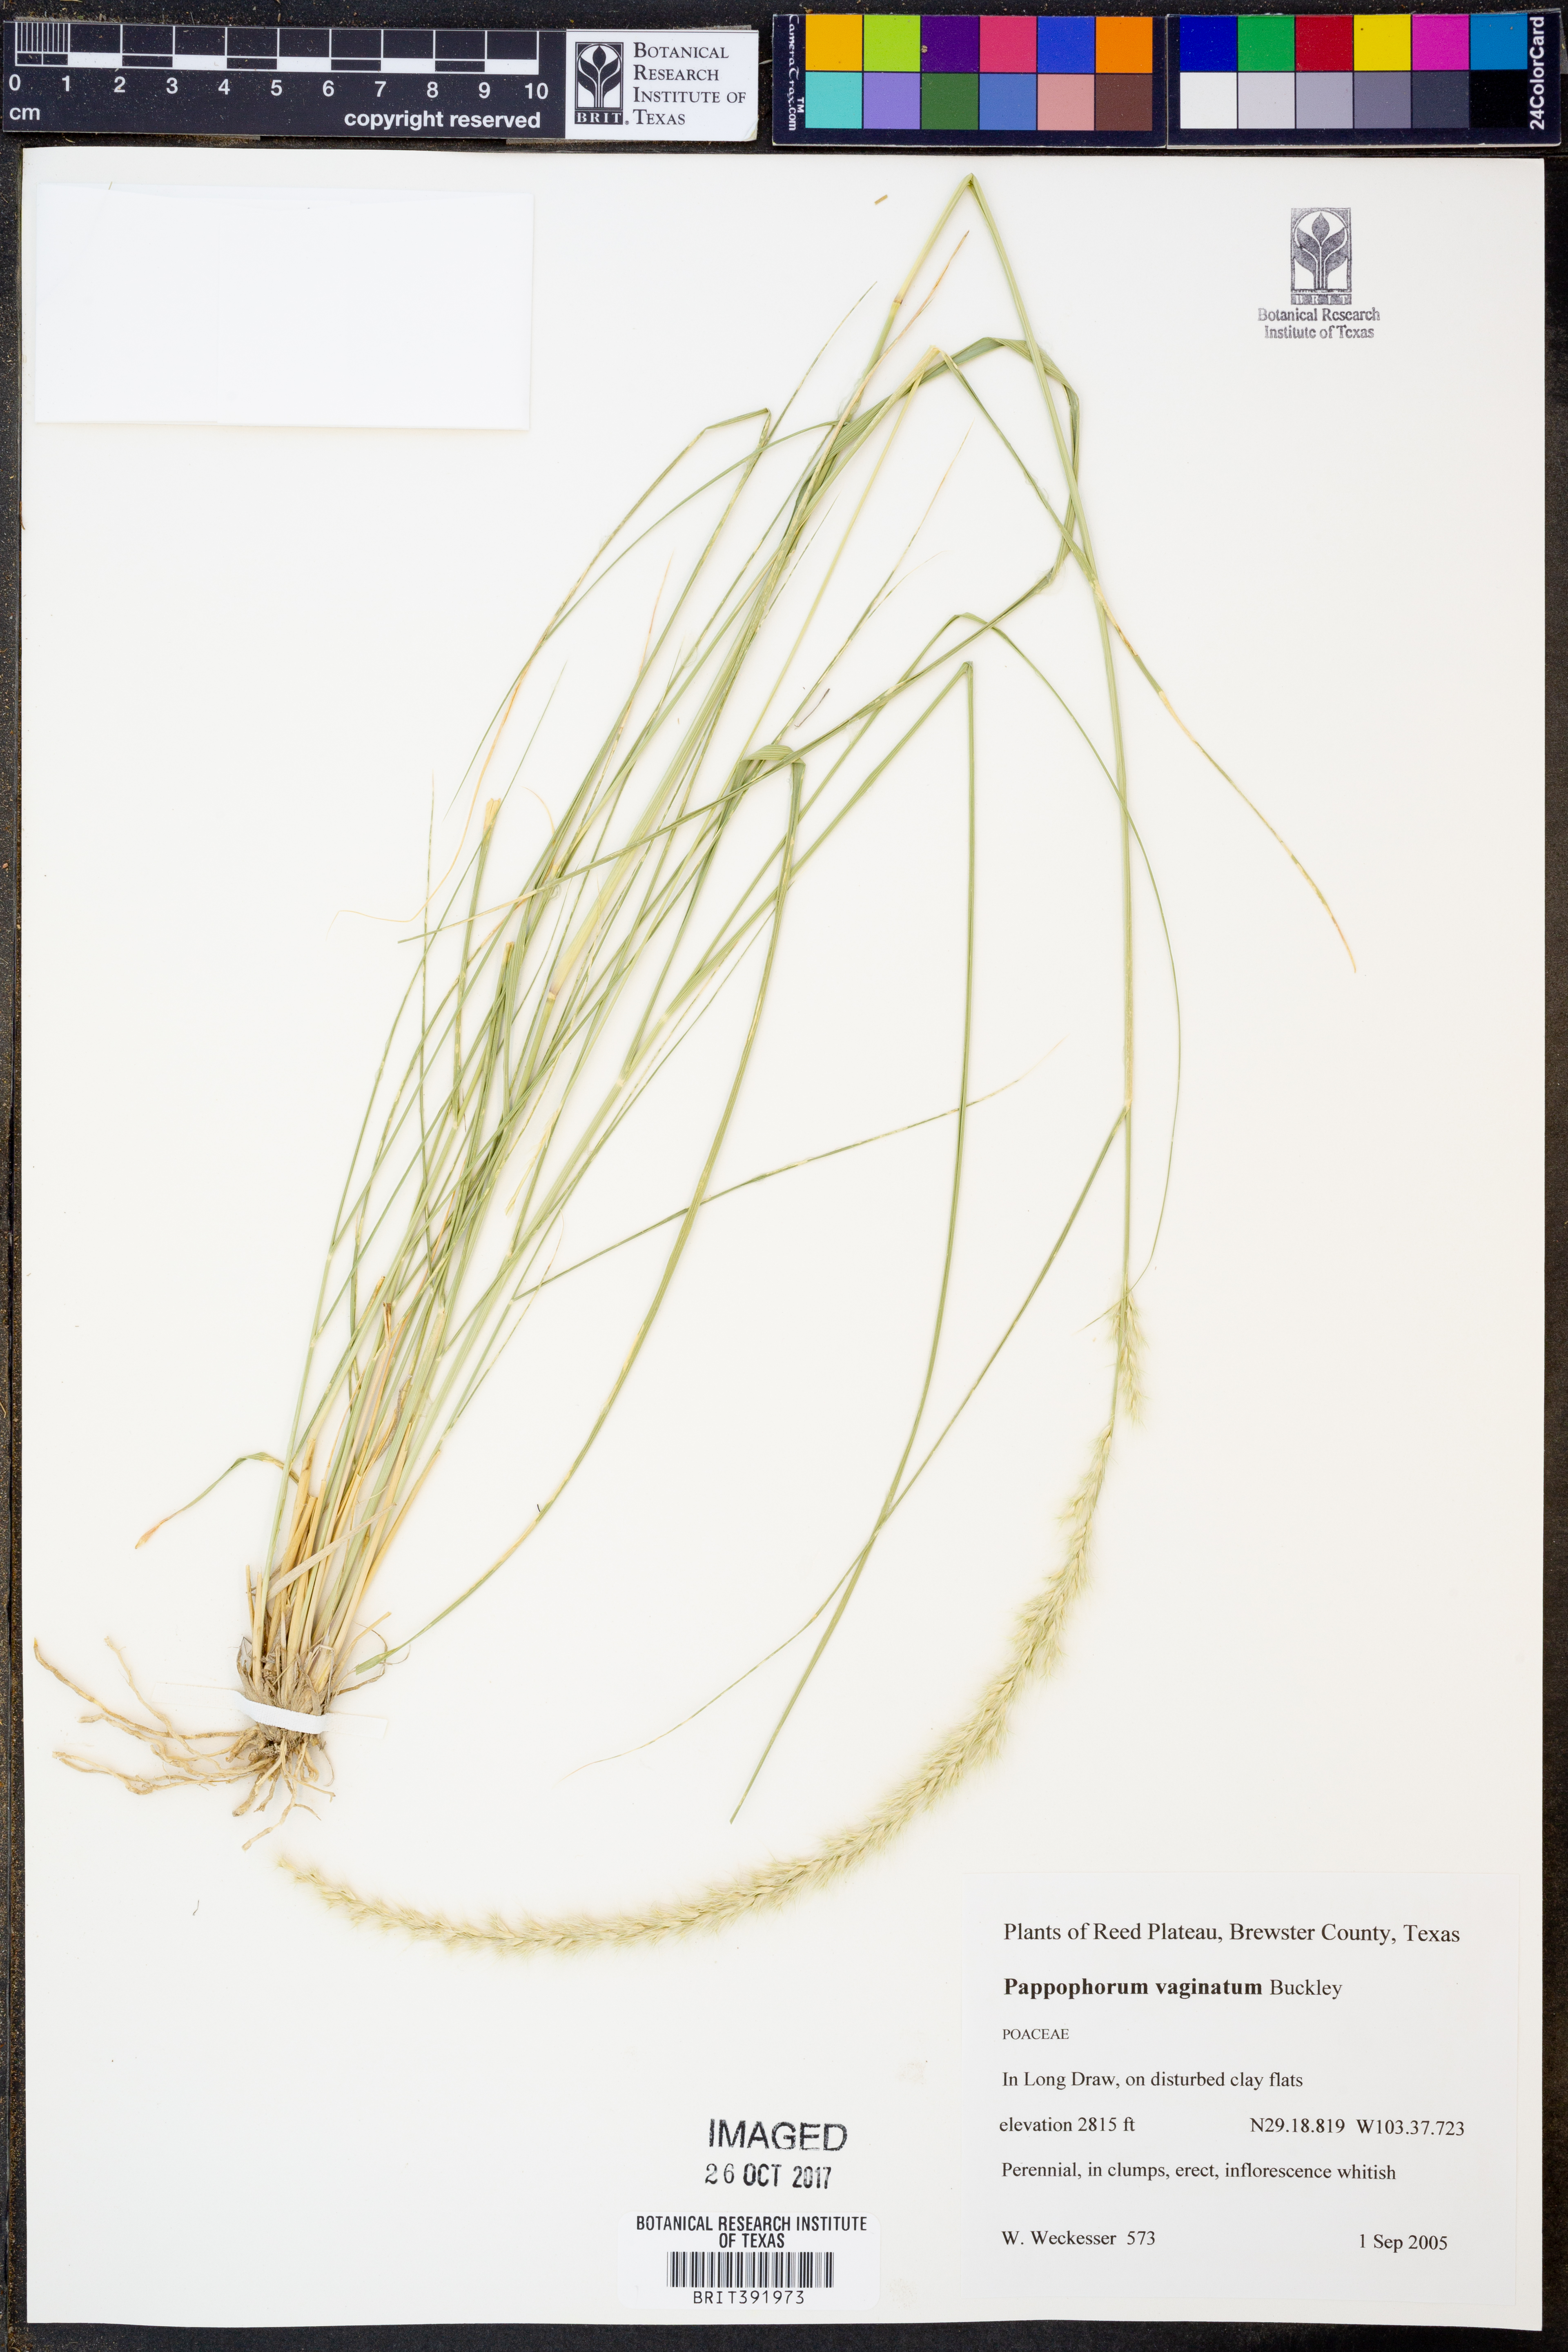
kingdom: Plantae
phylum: Tracheophyta
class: Liliopsida
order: Poales
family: Poaceae
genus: Pappophorum
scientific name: Pappophorum mucronulatum
